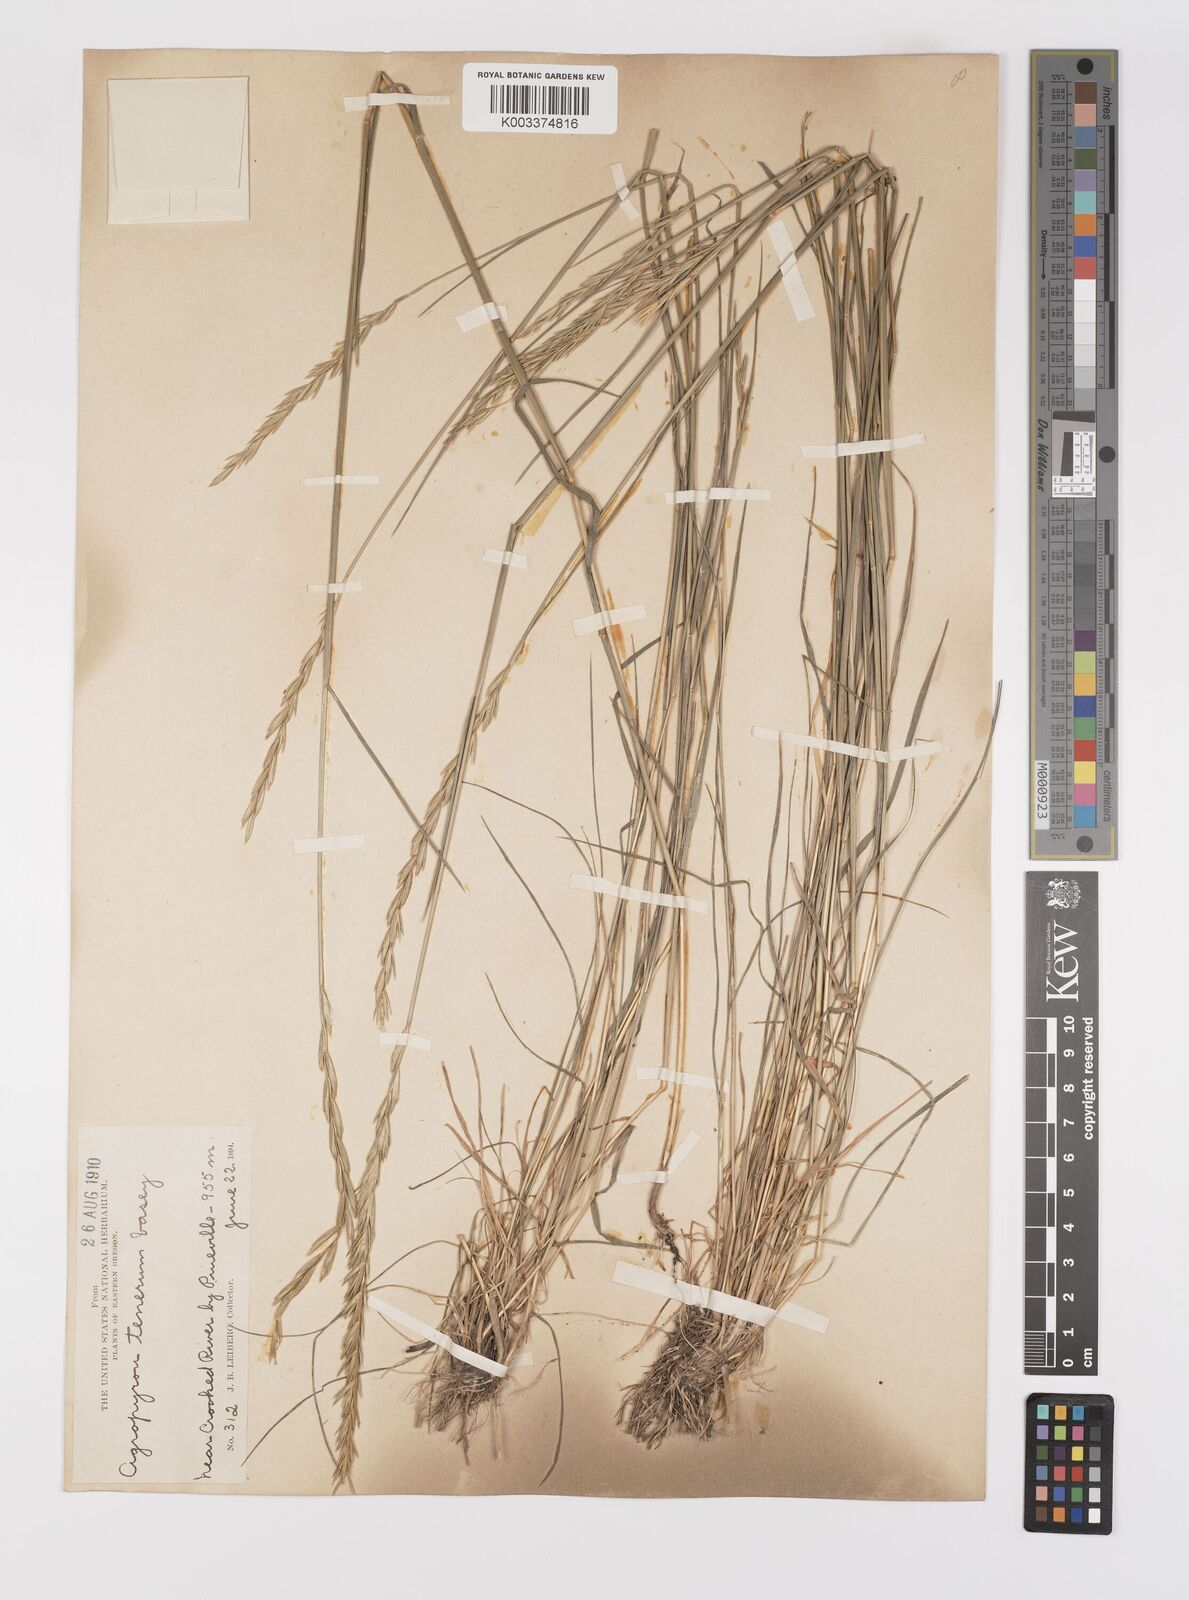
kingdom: Plantae
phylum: Tracheophyta
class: Liliopsida
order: Poales
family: Poaceae
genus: Elymus
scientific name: Elymus violaceus
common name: Arctic wheatgrass
